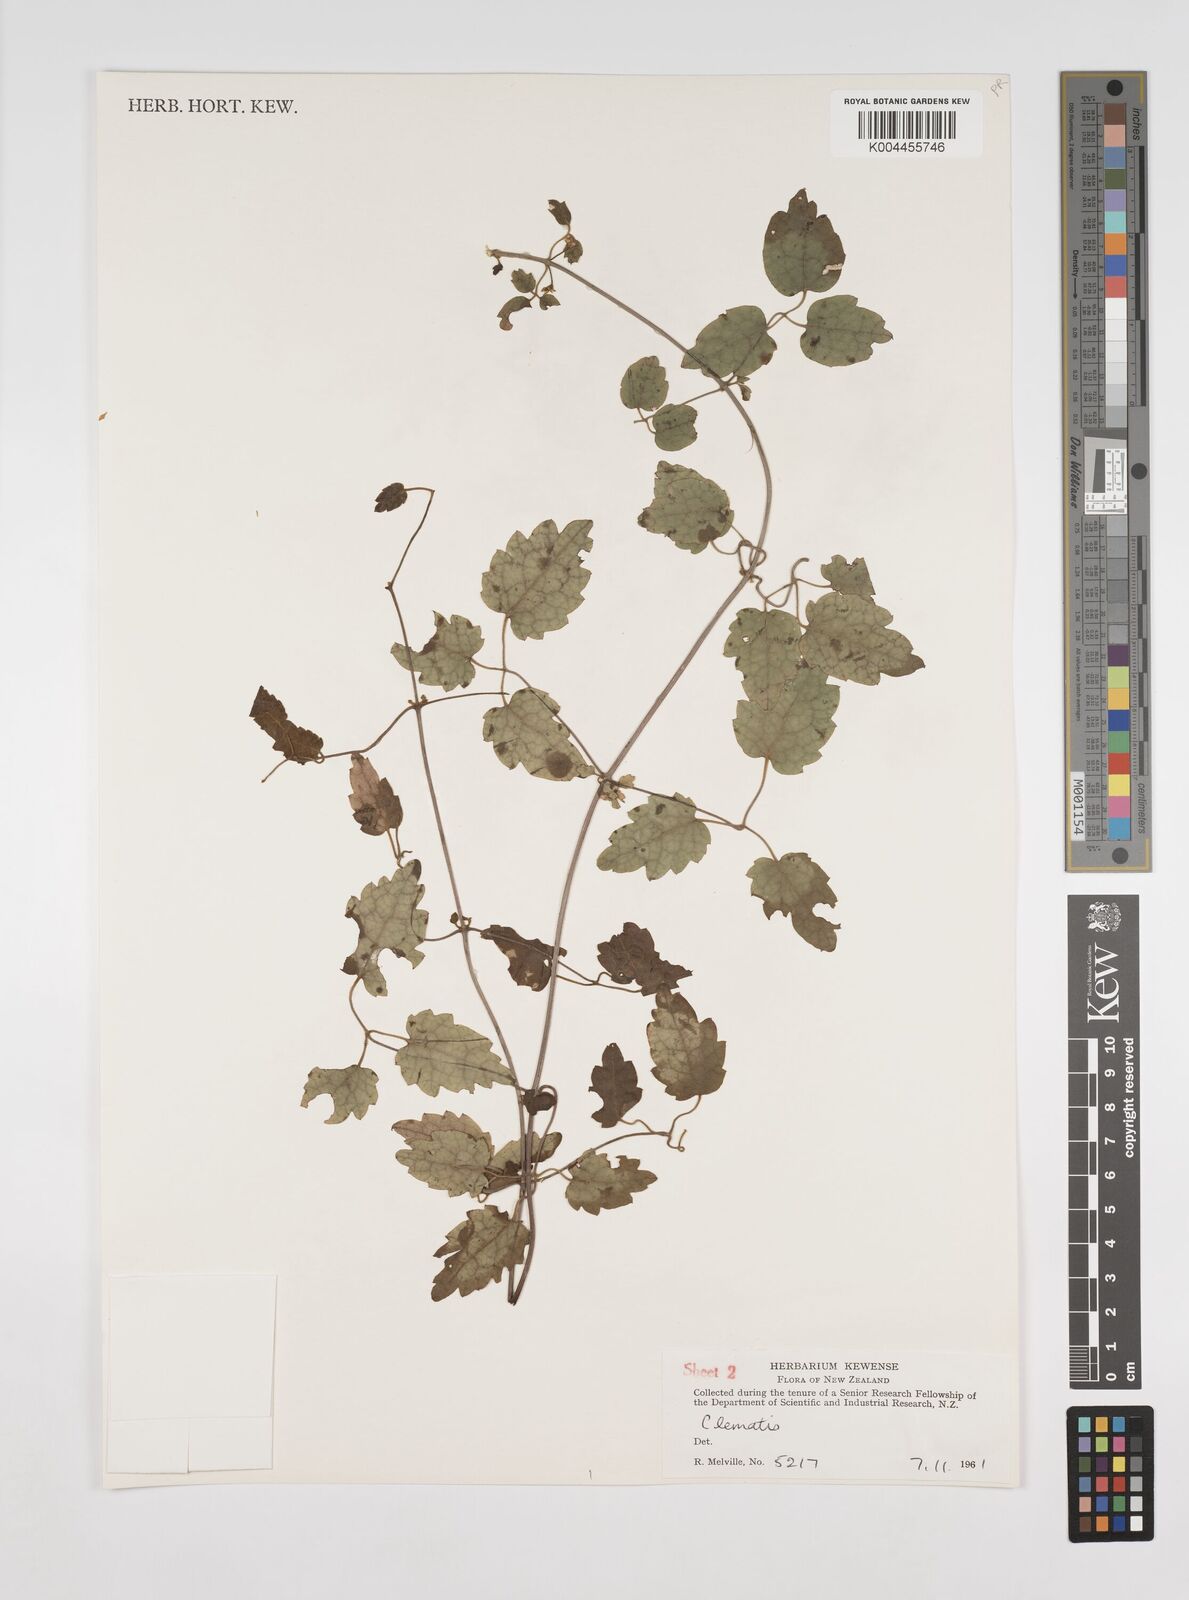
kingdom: Plantae
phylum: Tracheophyta
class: Magnoliopsida
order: Ranunculales
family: Ranunculaceae
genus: Clematis
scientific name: Clematis
